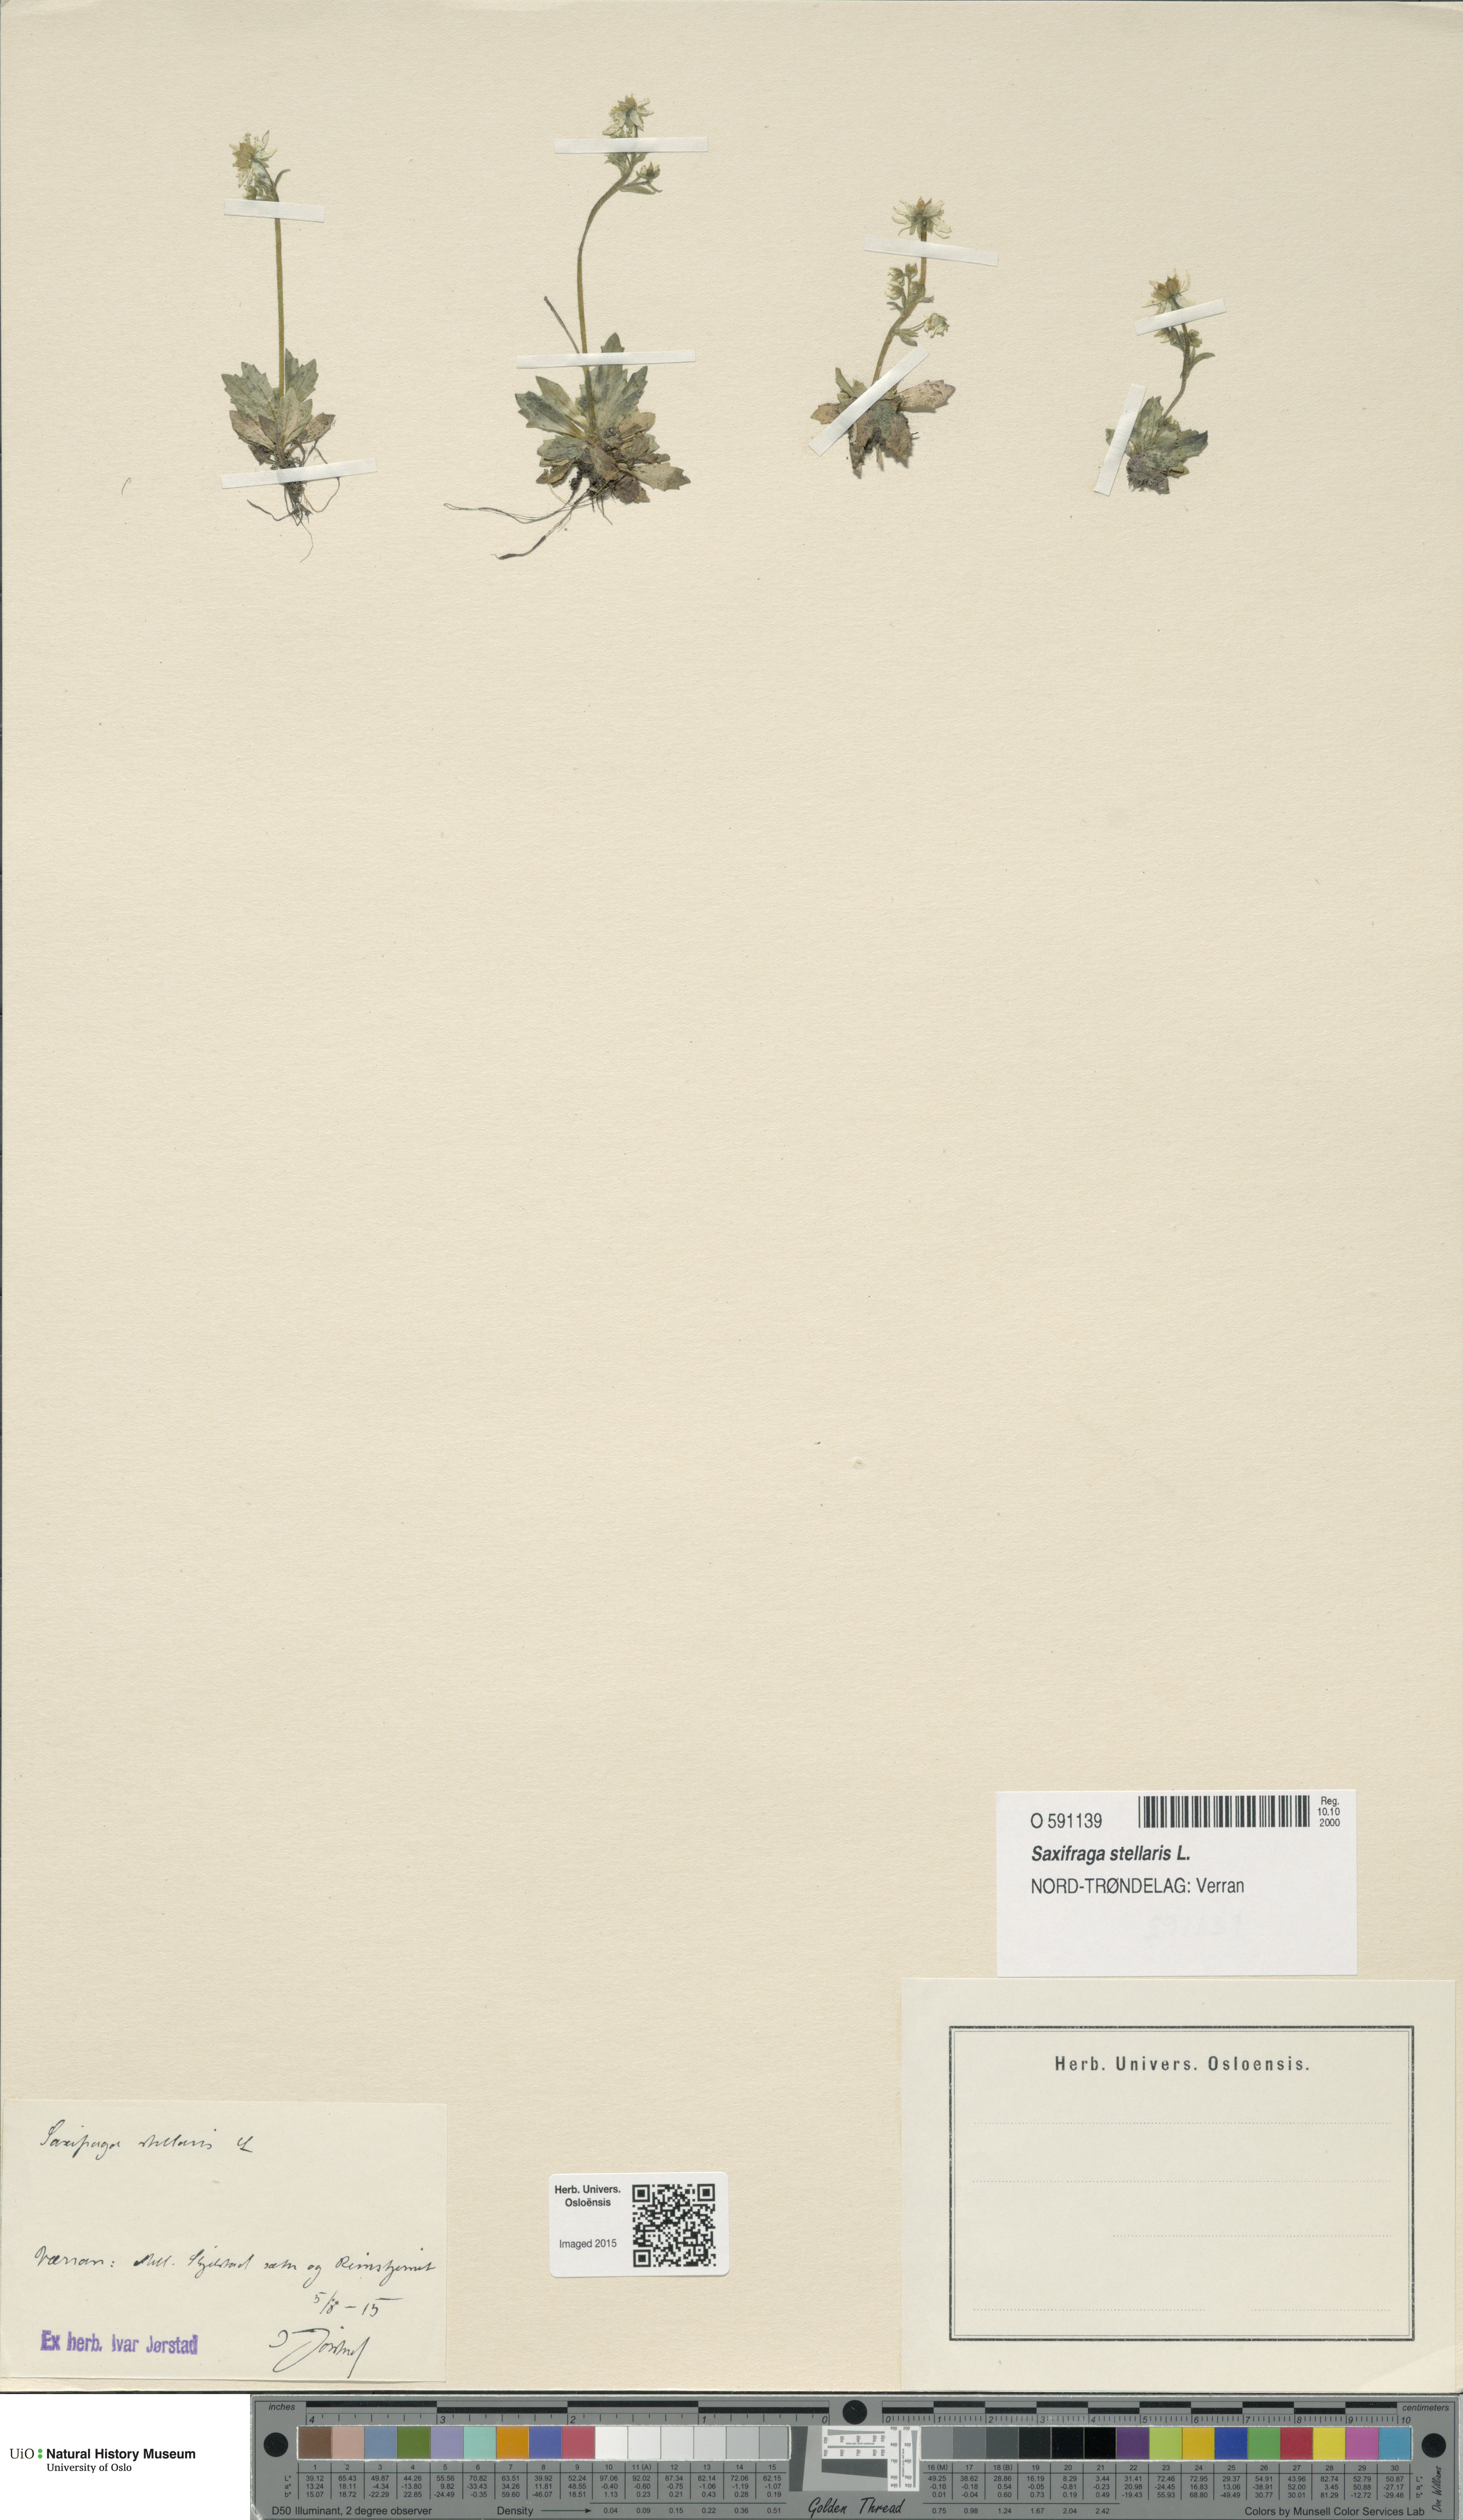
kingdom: Plantae
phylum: Tracheophyta
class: Magnoliopsida
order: Saxifragales
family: Saxifragaceae
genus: Micranthes
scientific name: Micranthes stellaris
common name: Starry saxifrage
